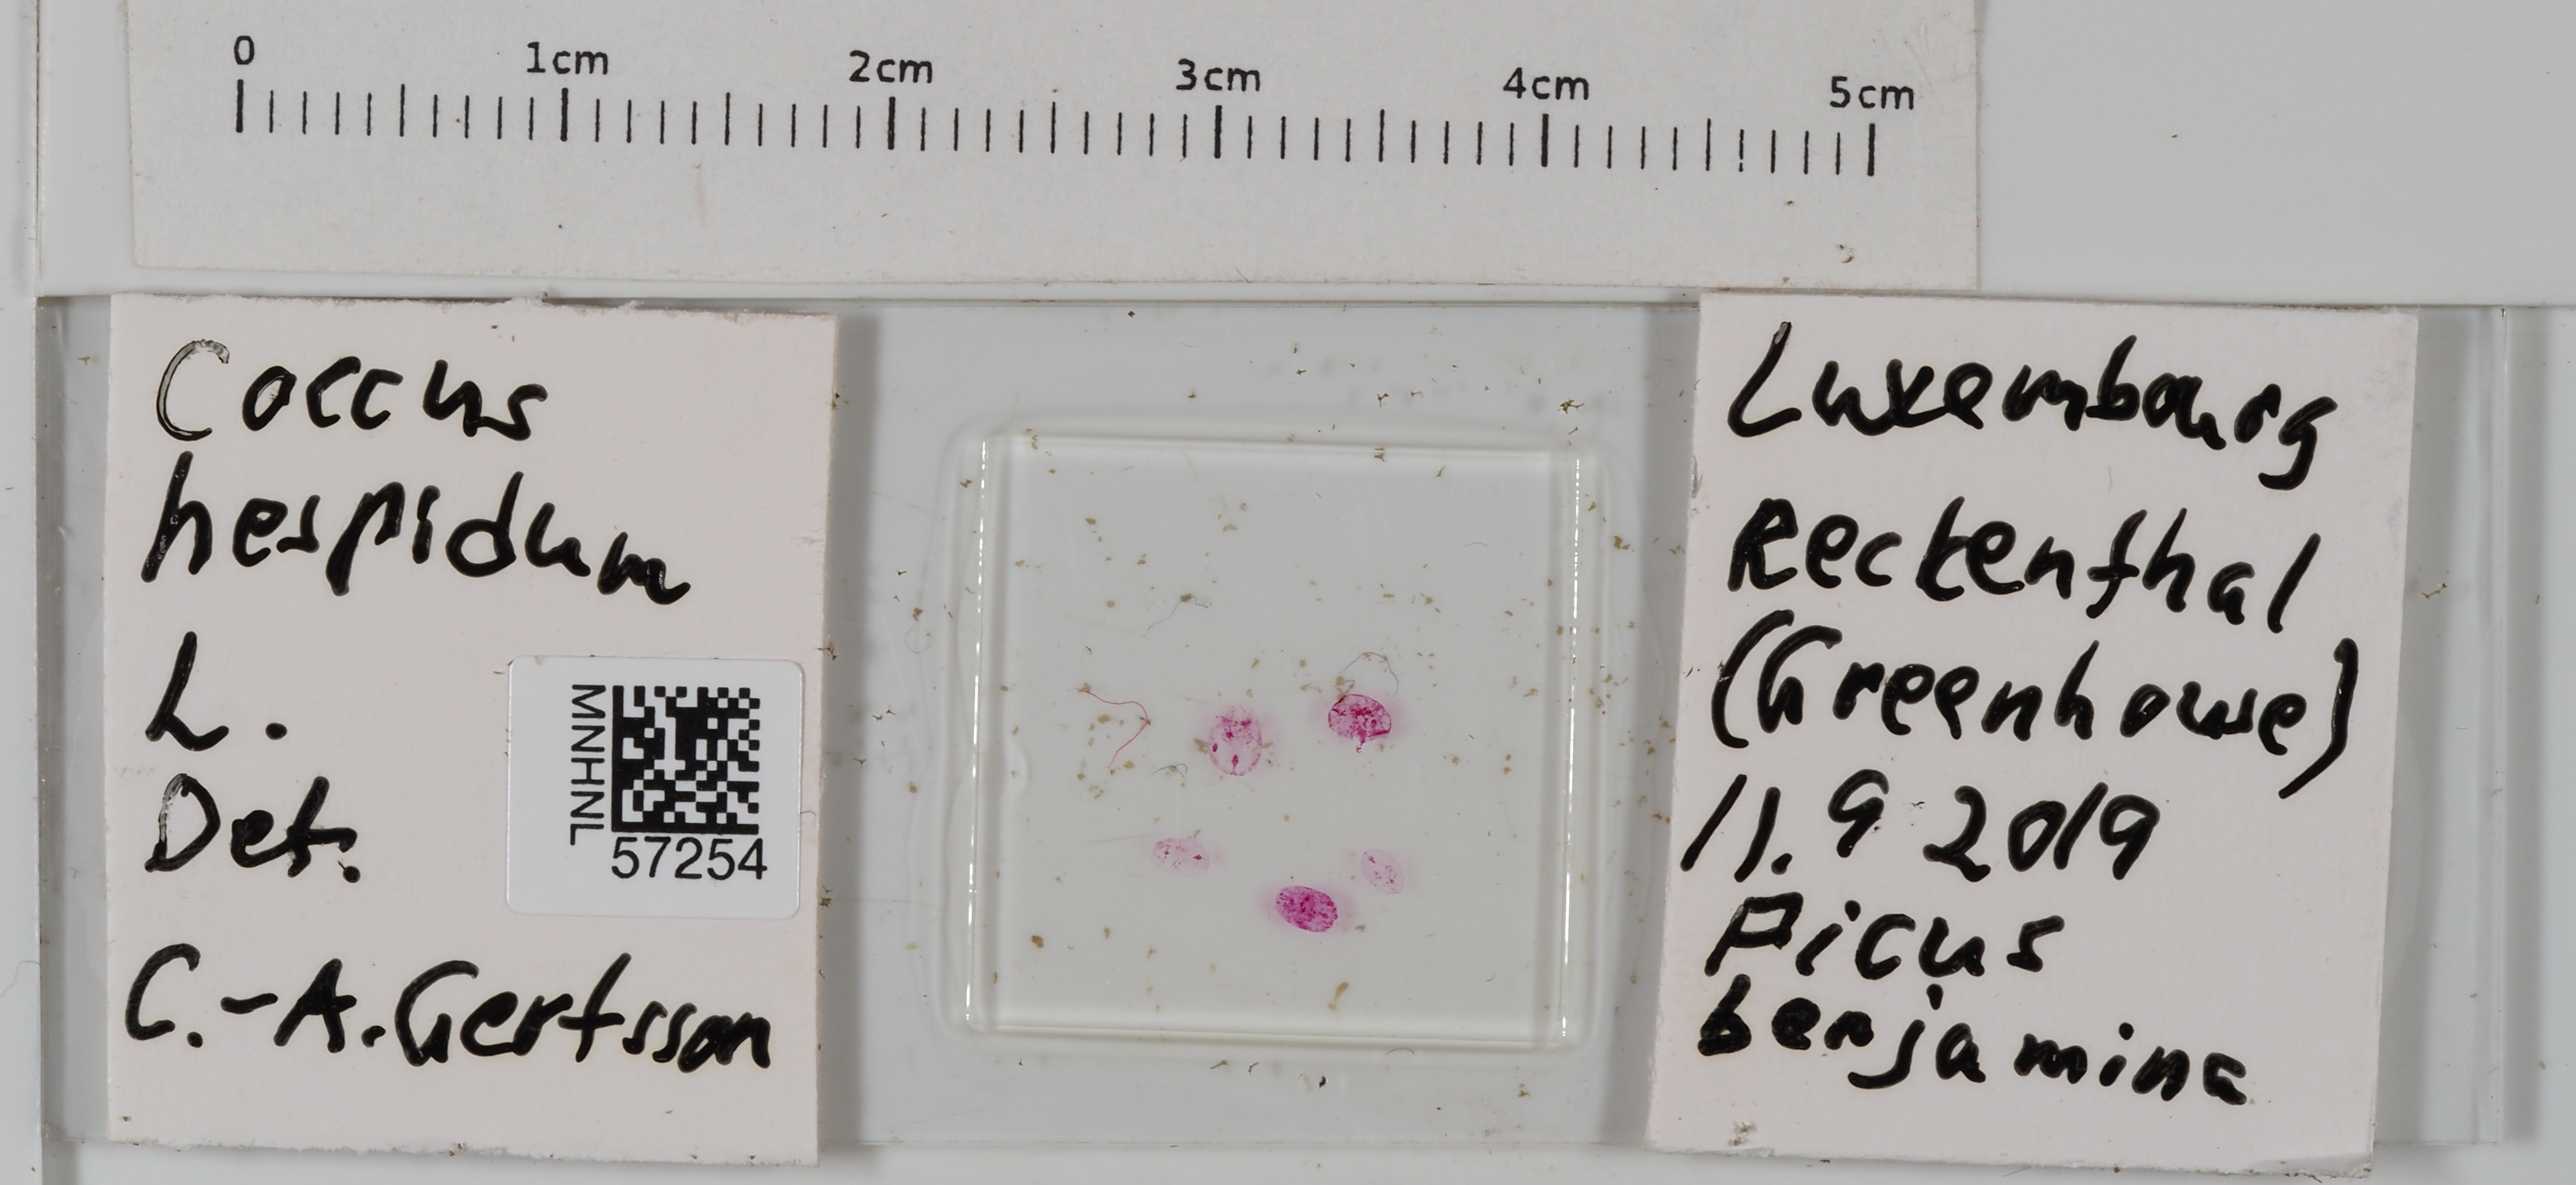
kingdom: Animalia
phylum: Arthropoda
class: Insecta
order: Hemiptera
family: Coccidae
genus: Coccus
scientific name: Coccus hesperidum
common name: Soft brown scale
